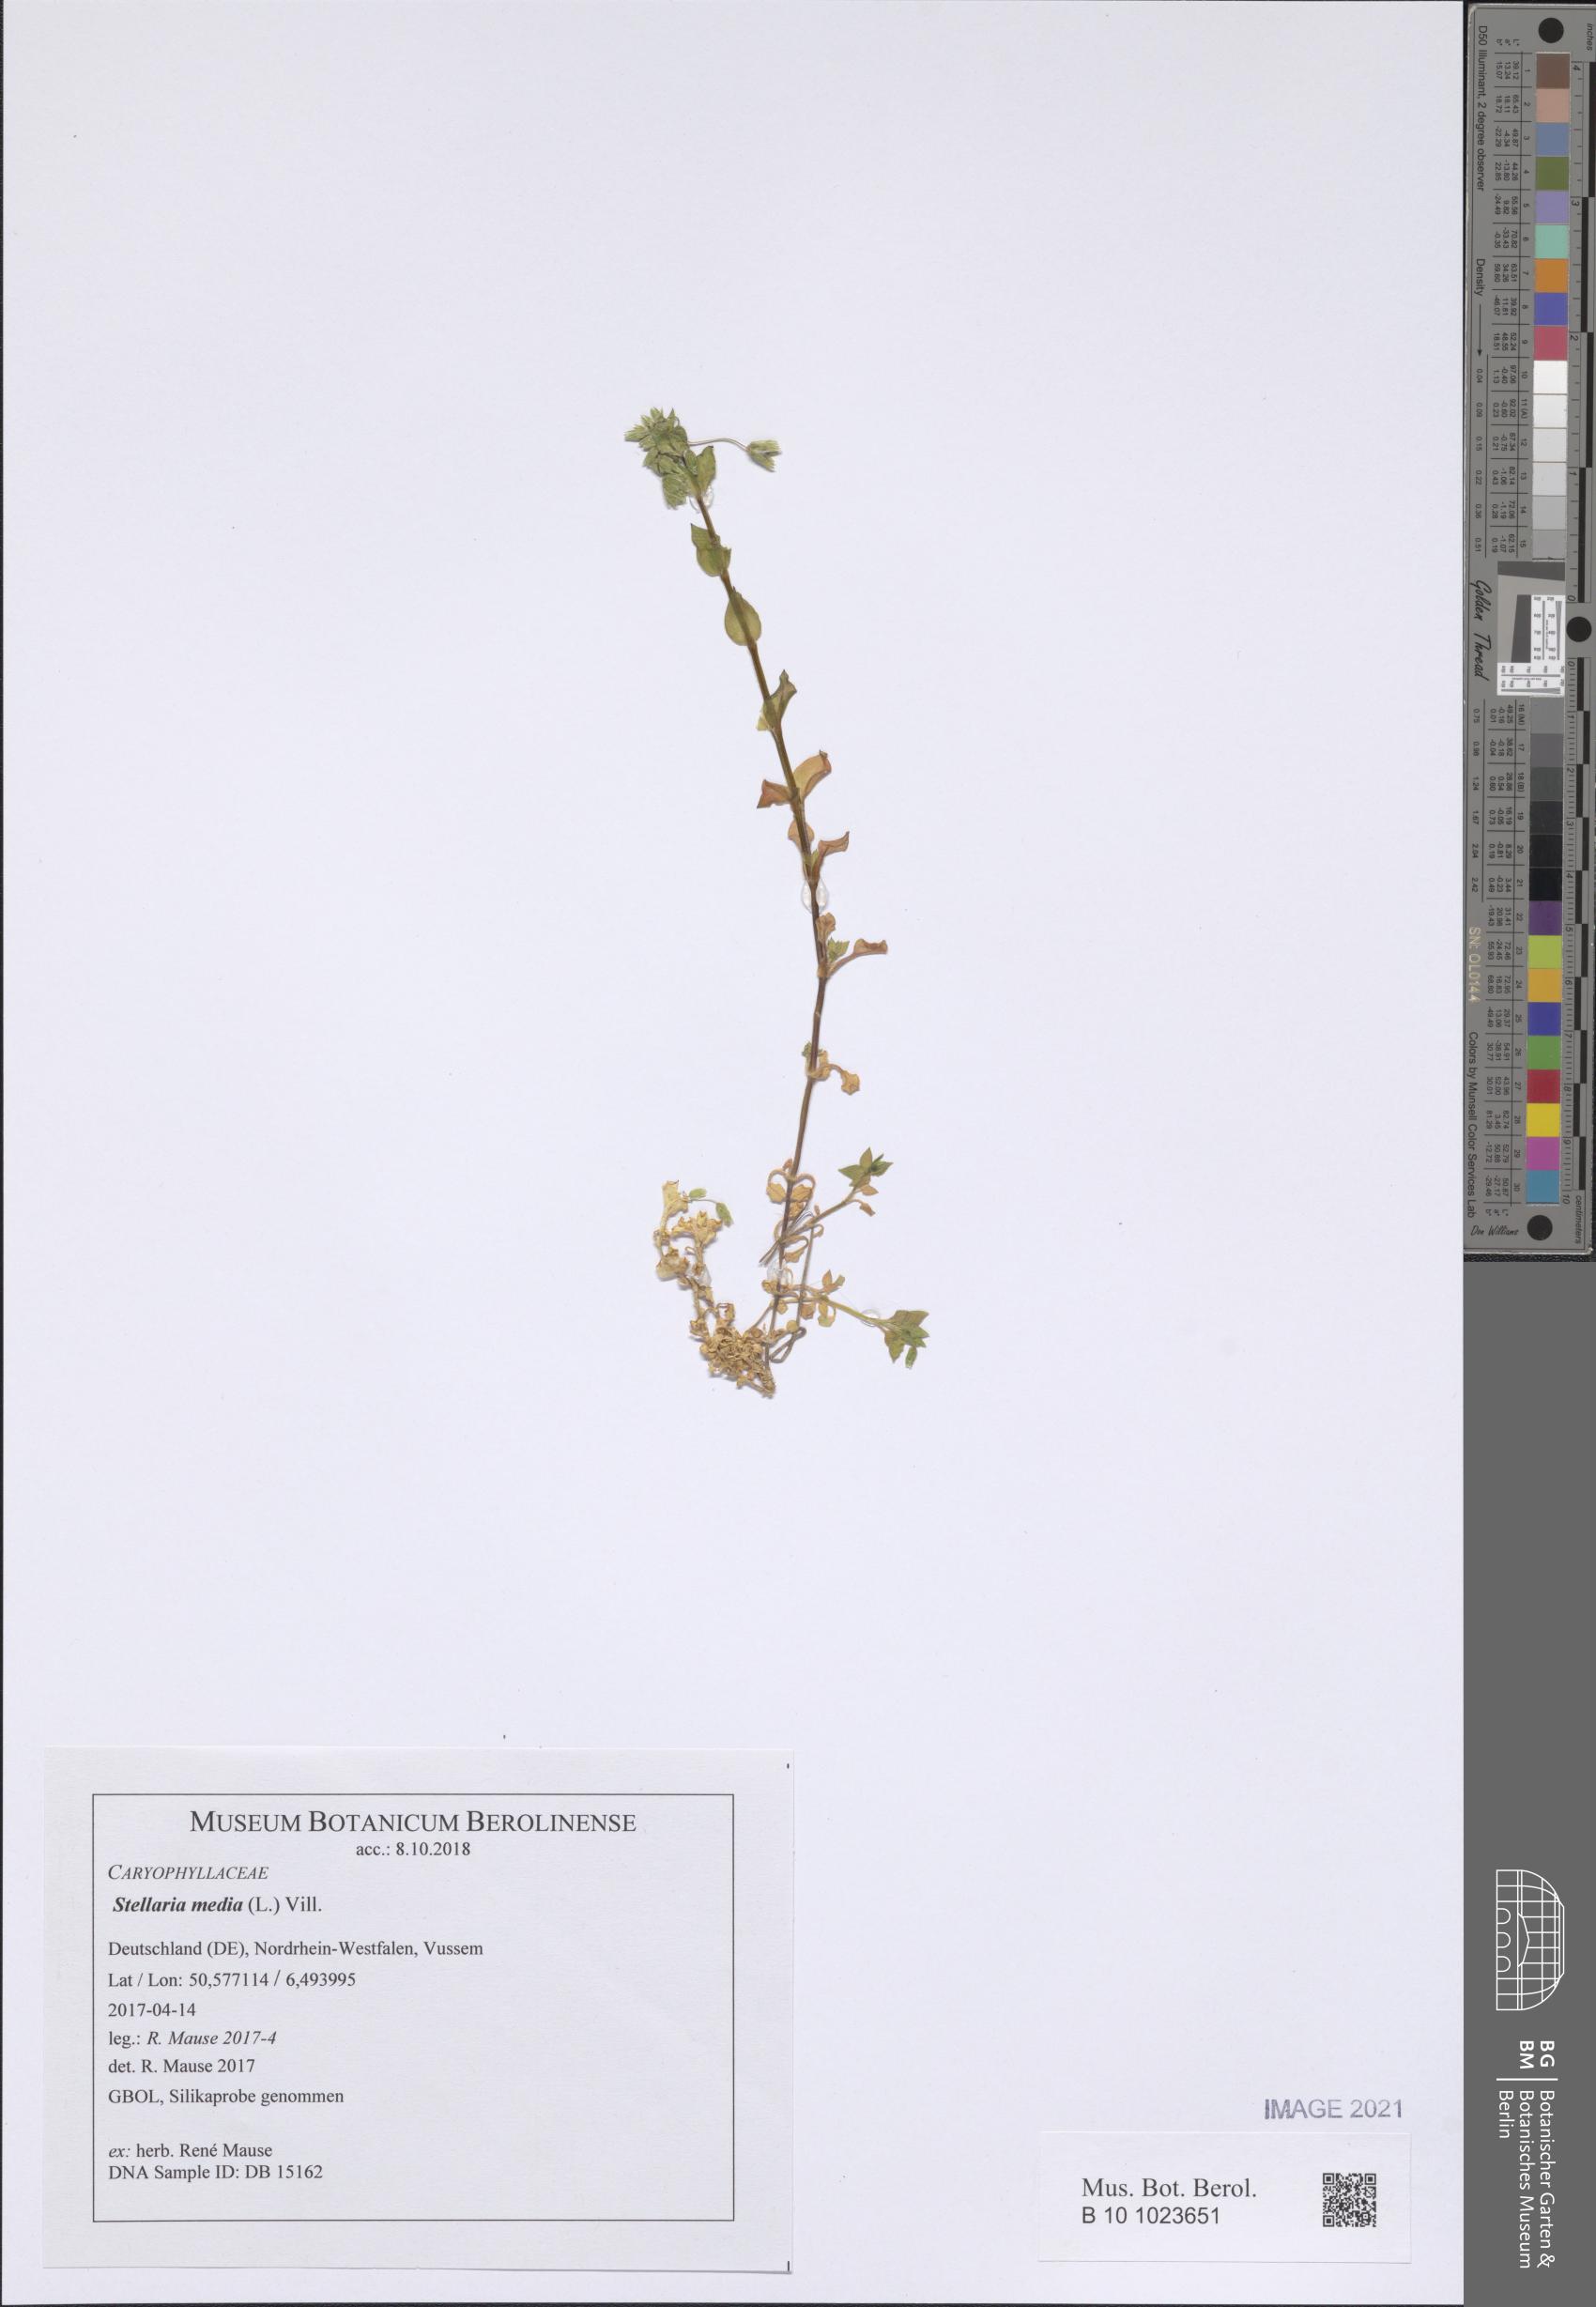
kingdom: Plantae
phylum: Tracheophyta
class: Magnoliopsida
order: Caryophyllales
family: Caryophyllaceae
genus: Stellaria
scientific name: Stellaria media
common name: Common chickweed
